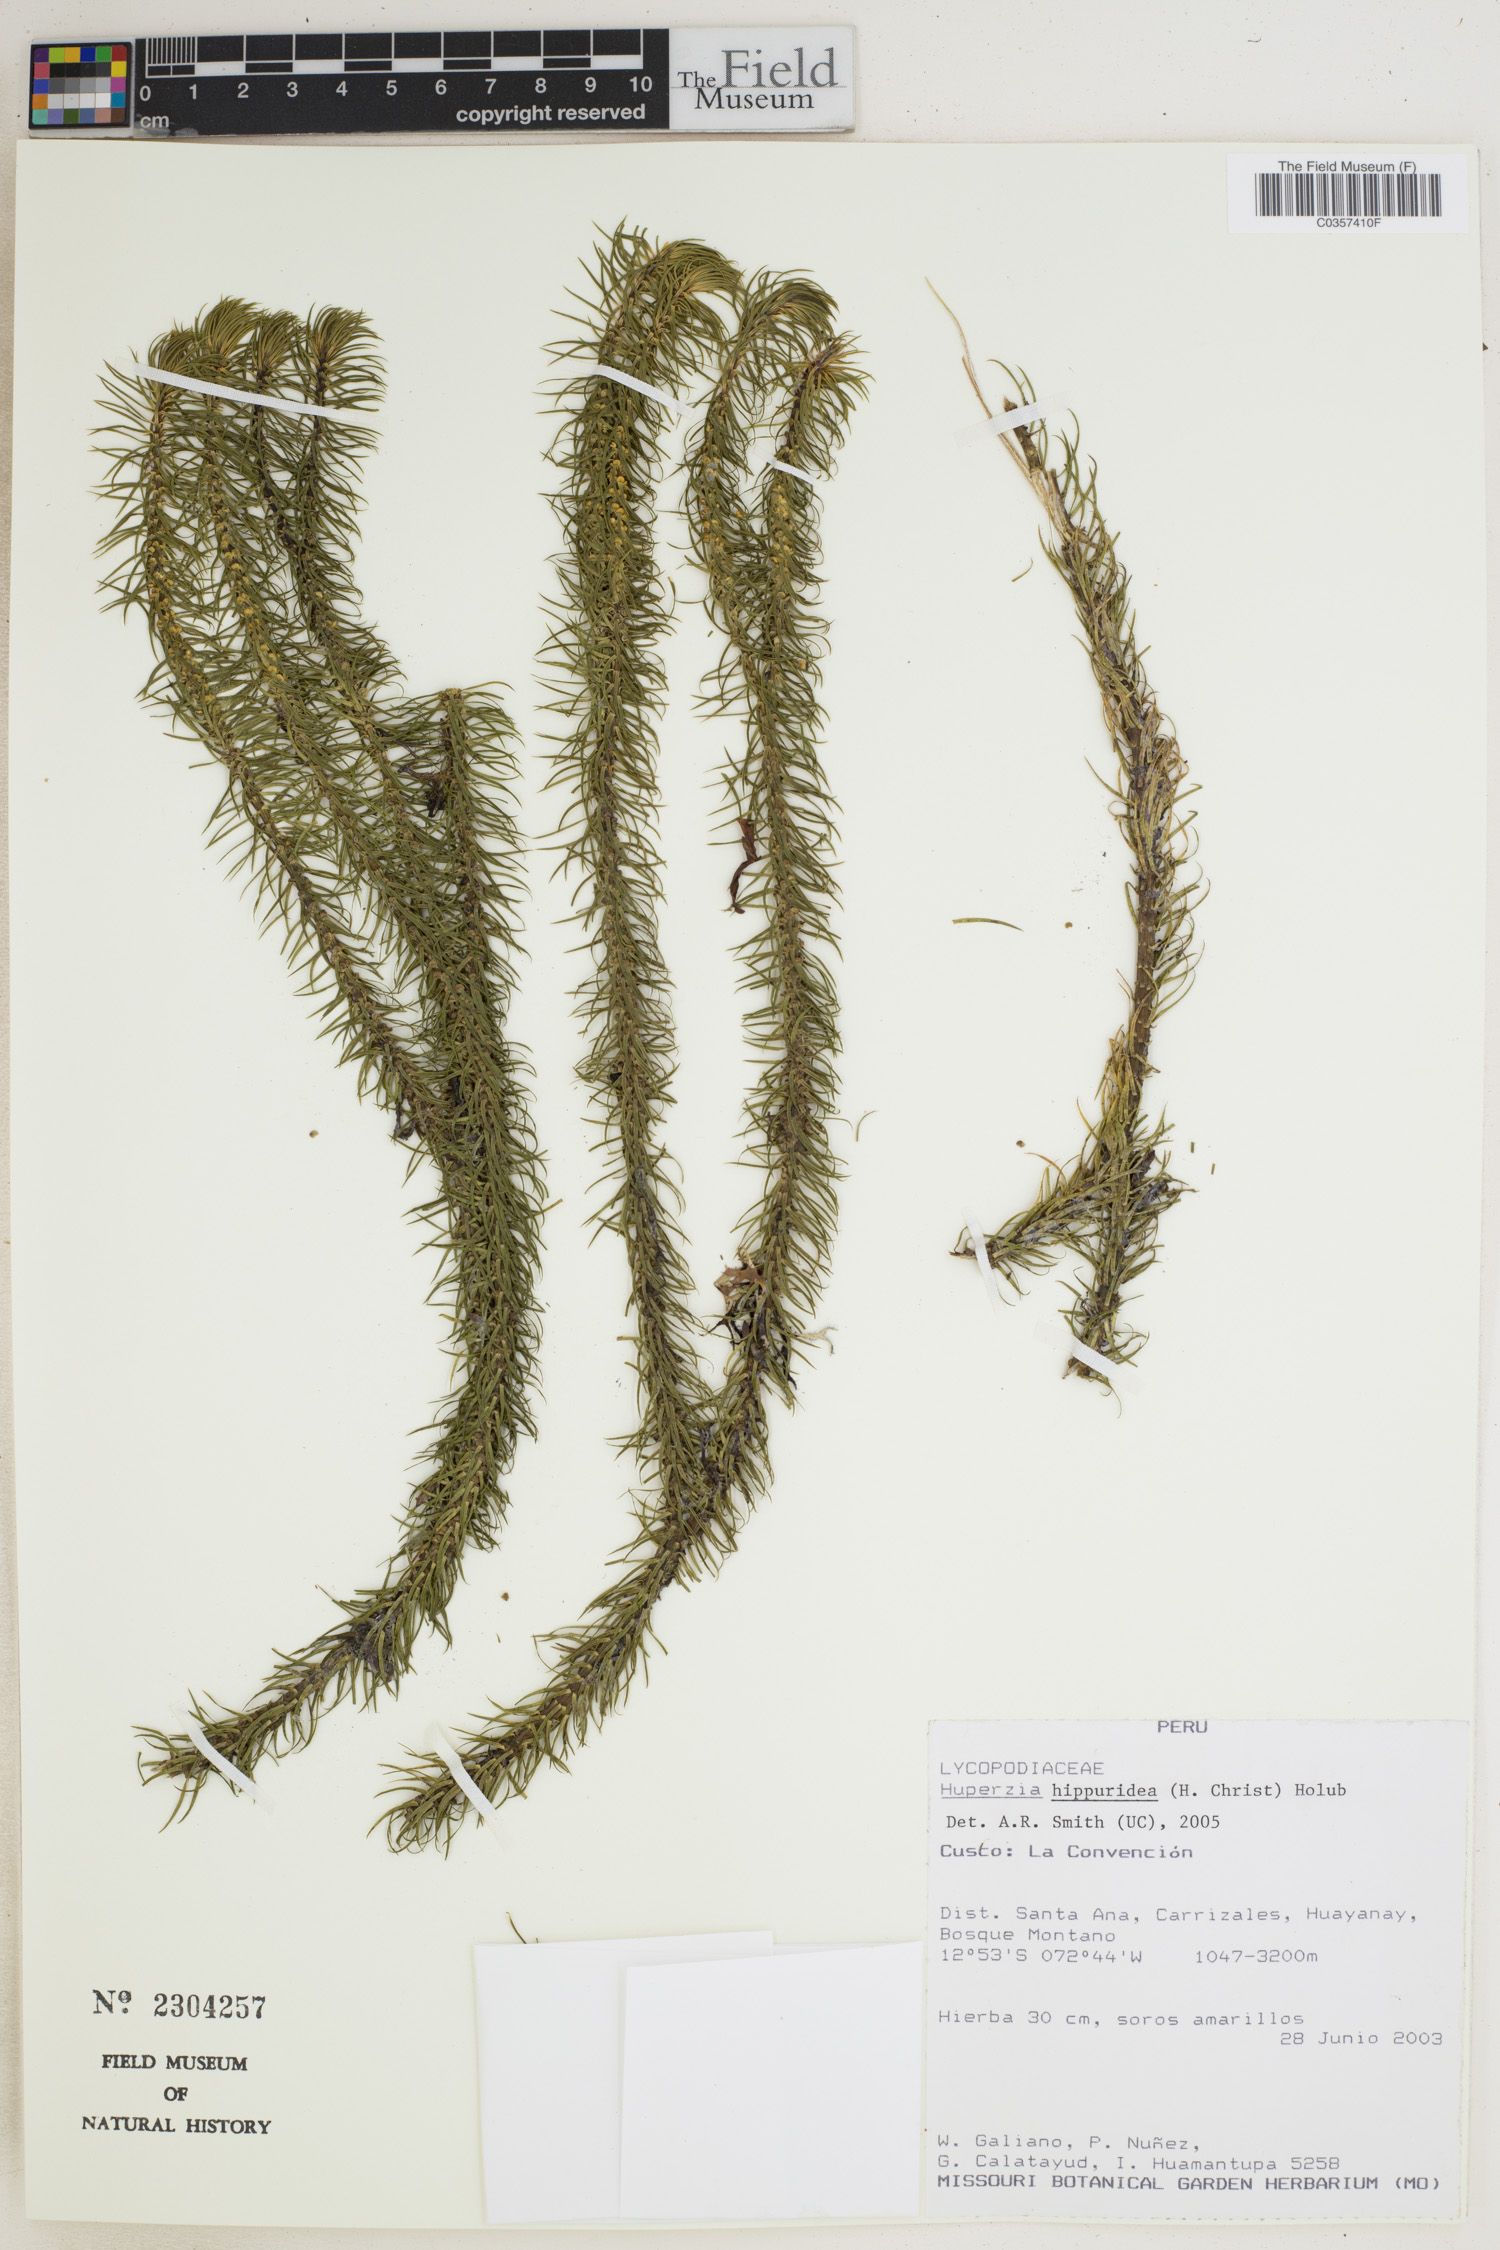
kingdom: Plantae
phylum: Tracheophyta
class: Lycopodiopsida
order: Lycopodiales
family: Lycopodiaceae
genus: Phlegmariurus
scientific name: Phlegmariurus hippurideus
